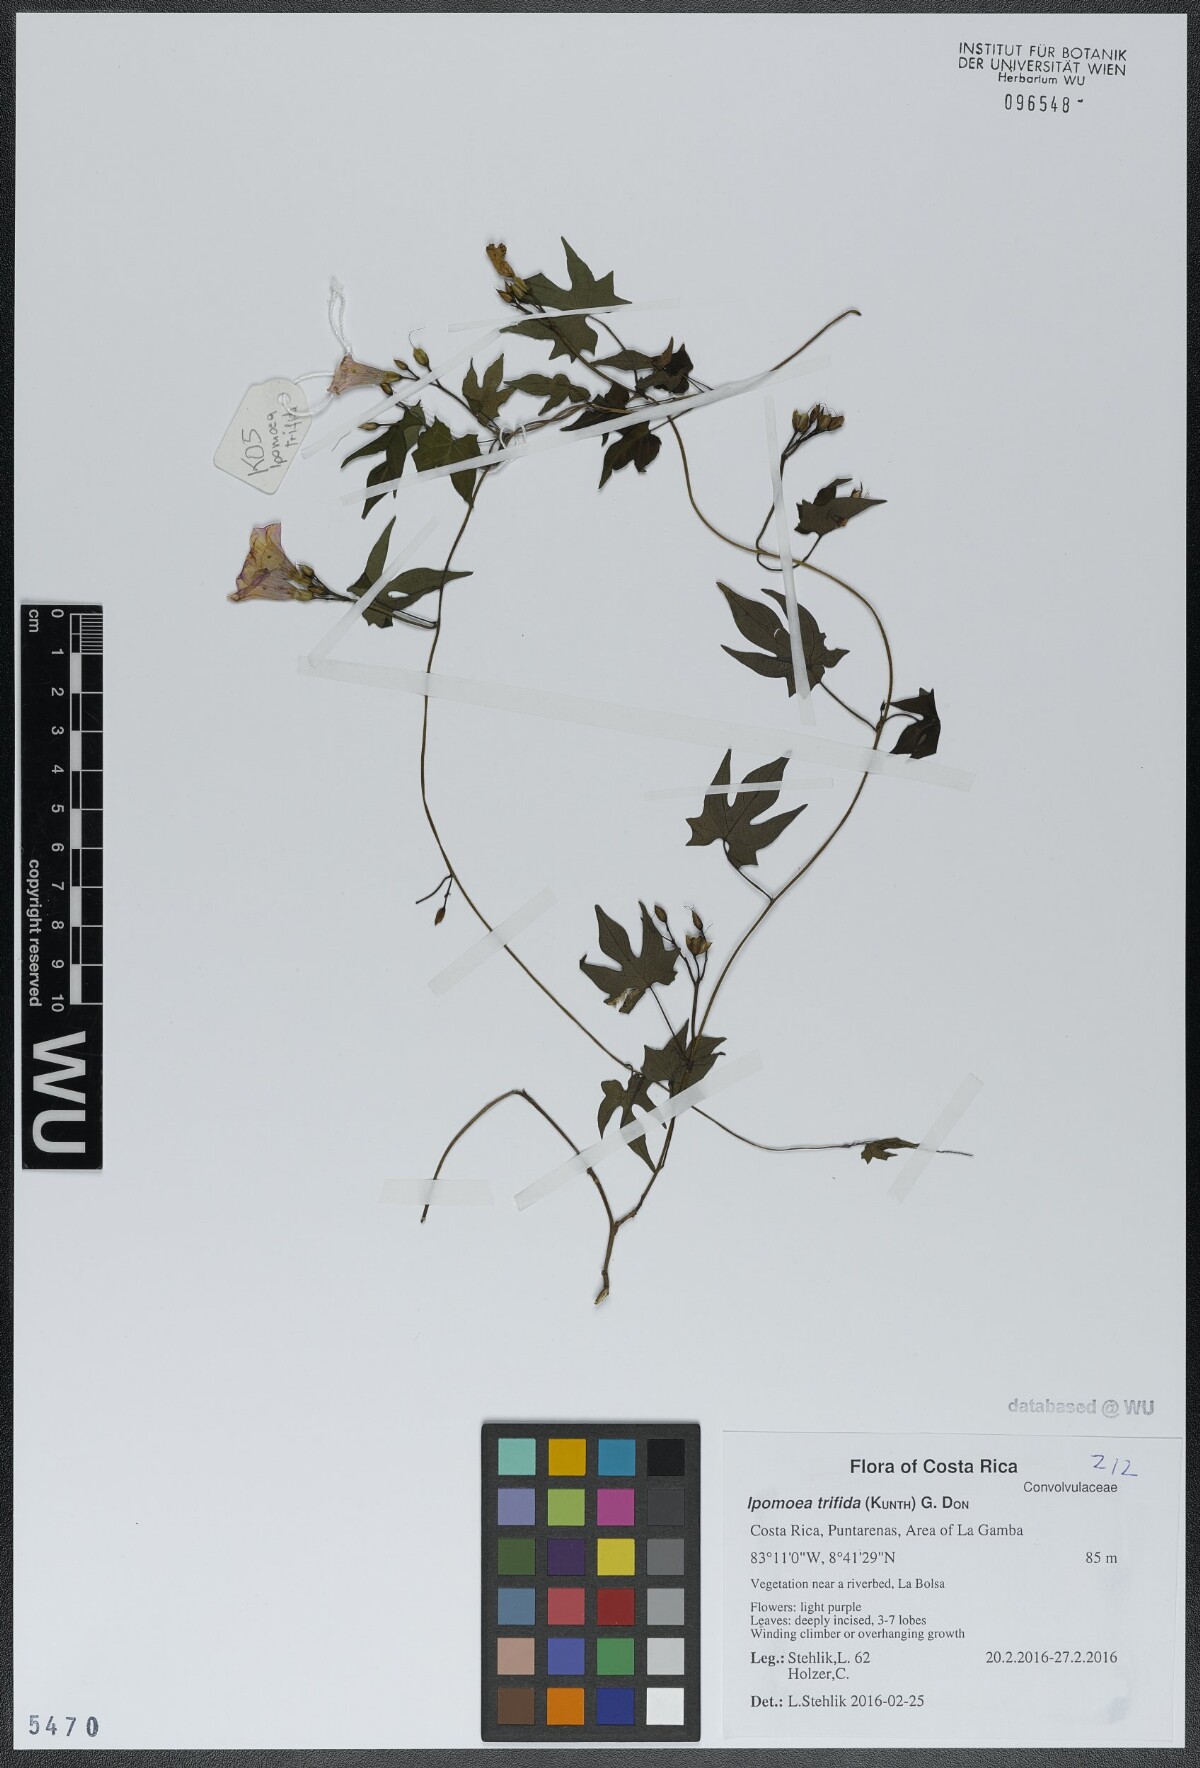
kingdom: Plantae
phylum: Tracheophyta
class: Magnoliopsida
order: Solanales
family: Convolvulaceae
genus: Ipomoea
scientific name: Ipomoea trifida
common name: Cotton morningglory
